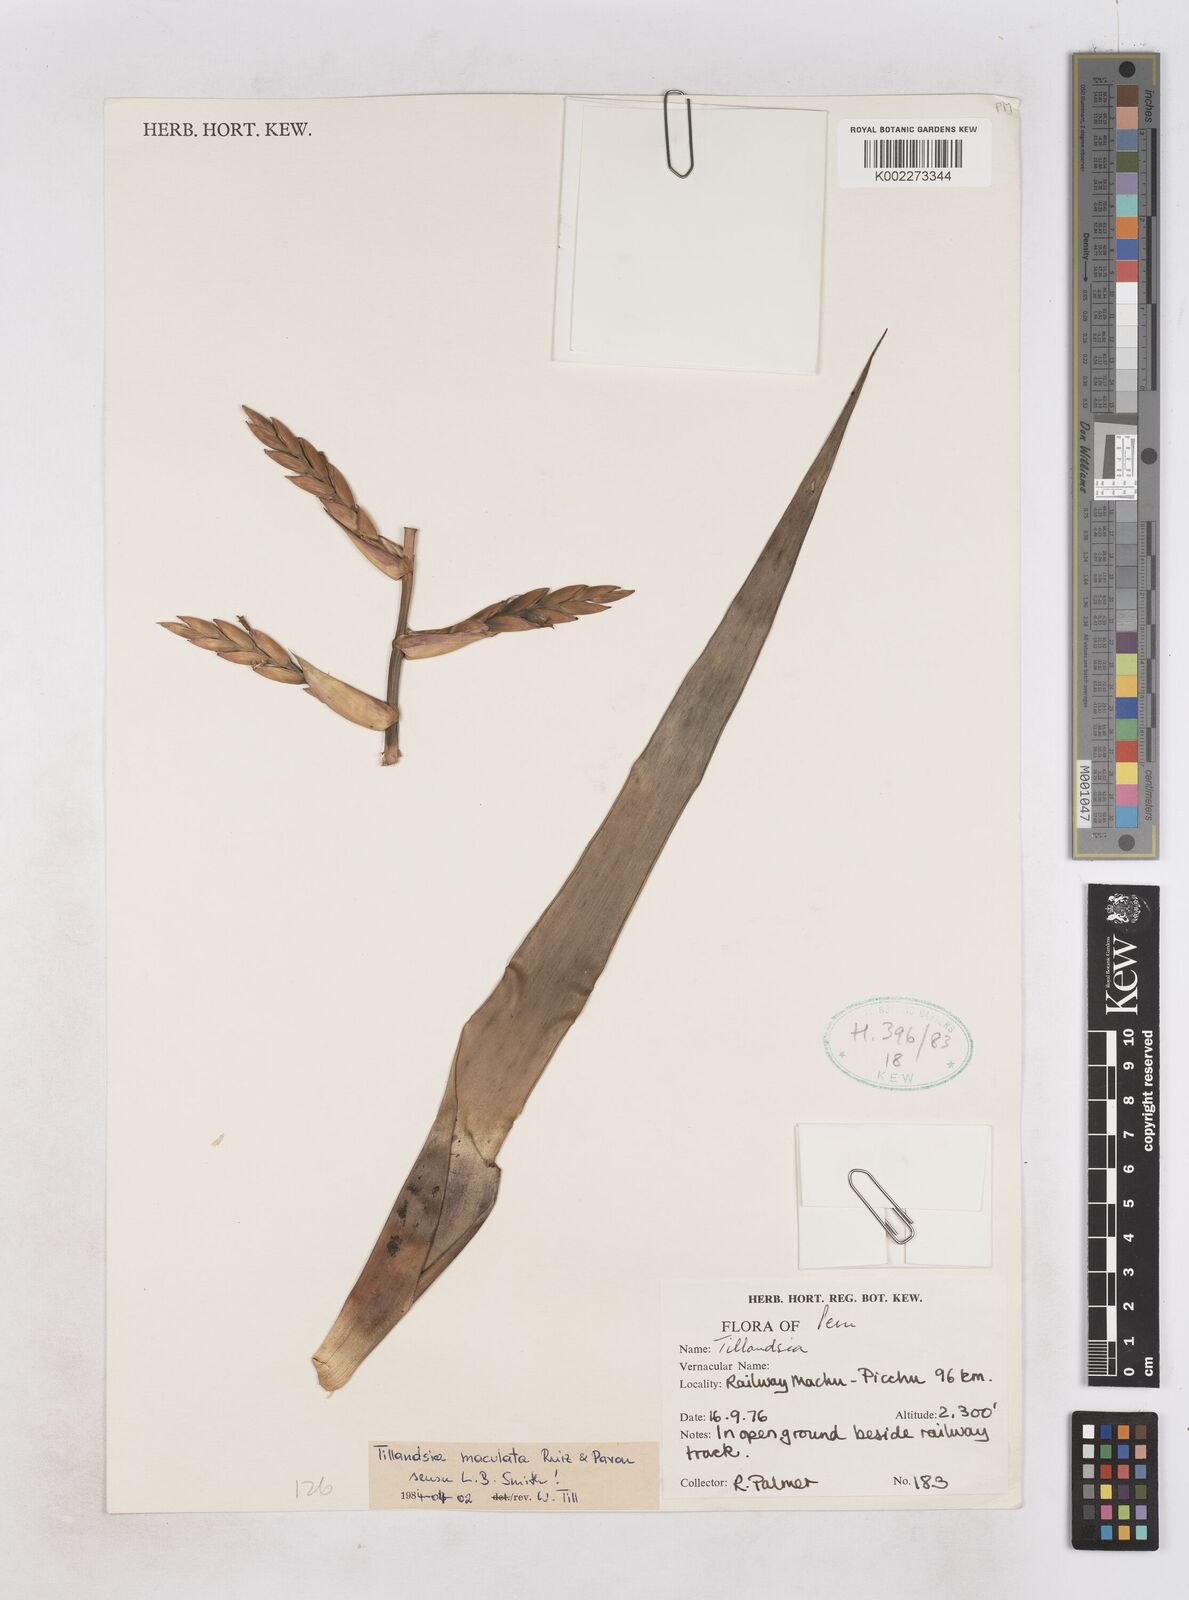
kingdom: Plantae
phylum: Tracheophyta
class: Liliopsida
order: Poales
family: Bromeliaceae
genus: Tillandsia
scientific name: Tillandsia maculata
